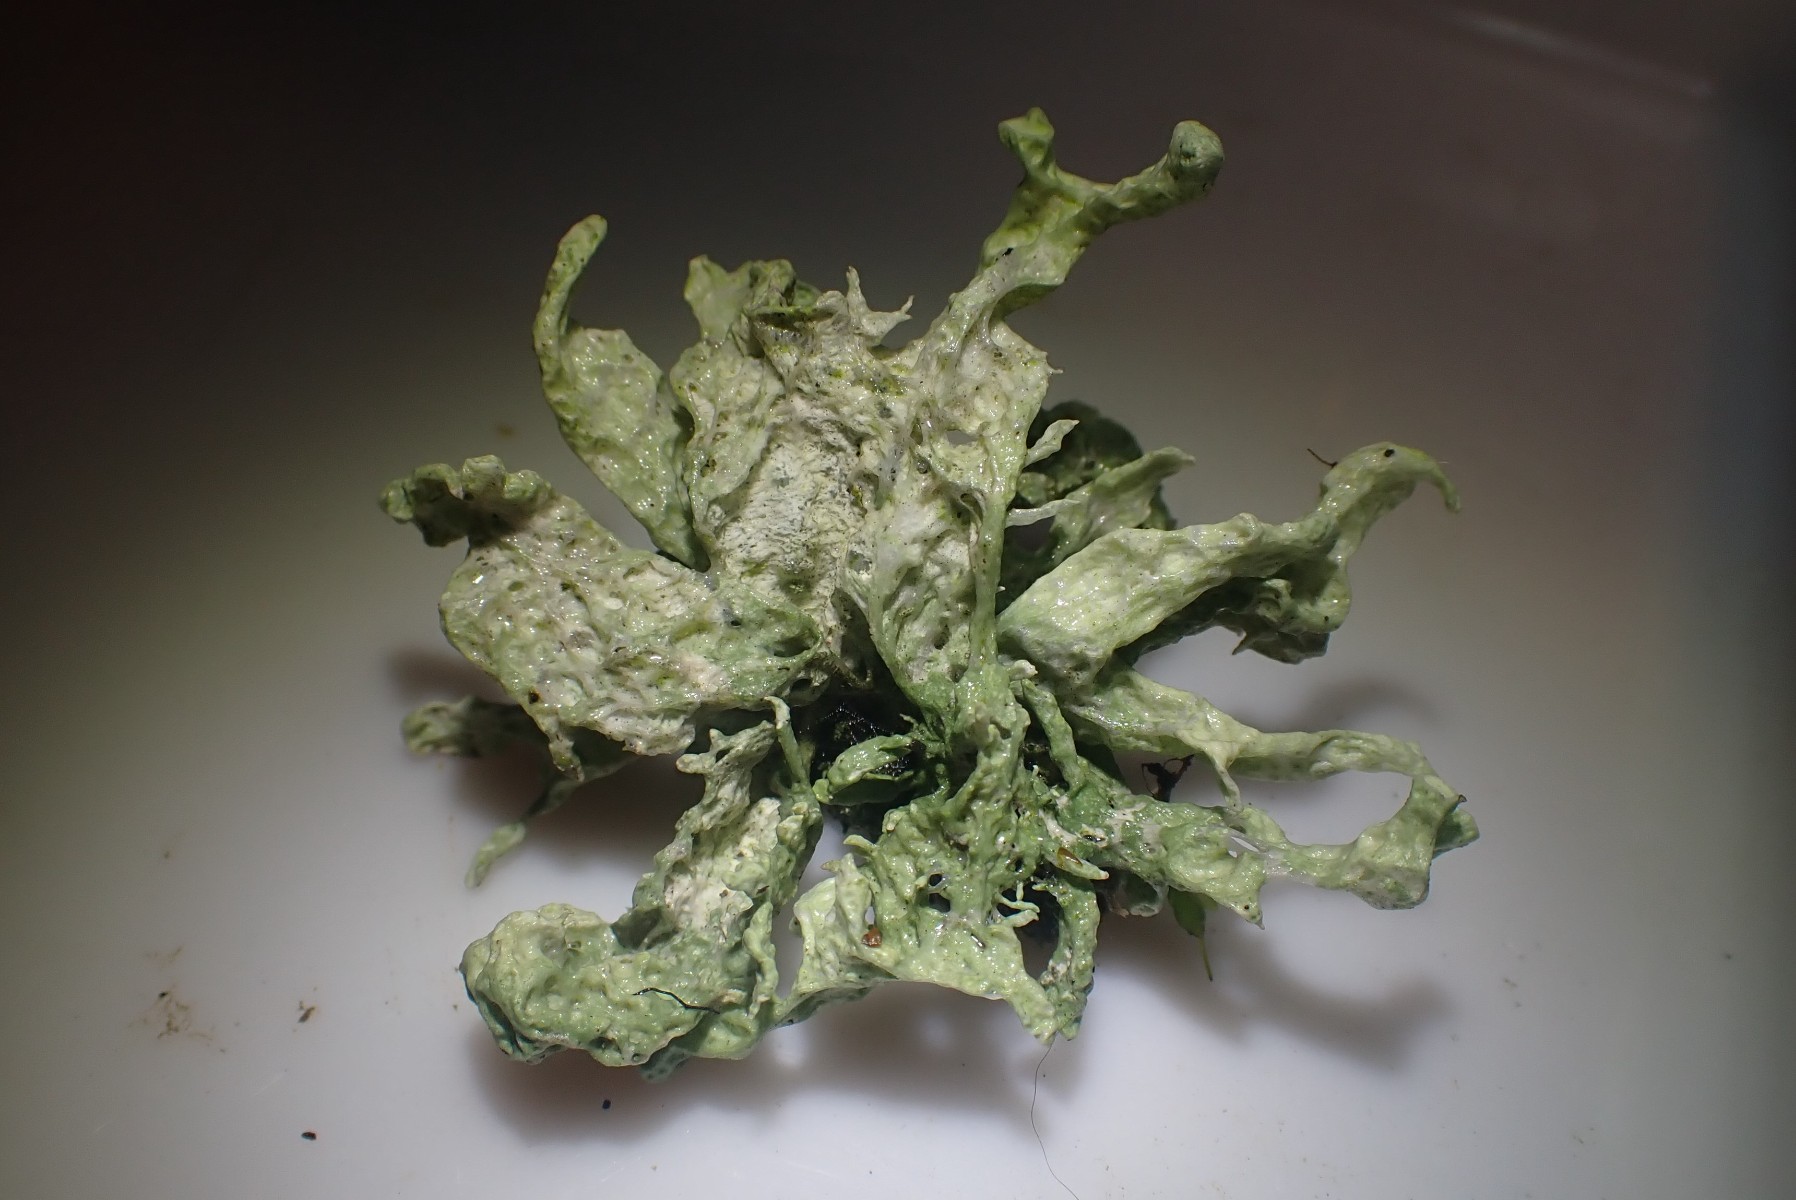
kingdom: Fungi
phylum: Ascomycota
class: Lecanoromycetes
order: Lecanorales
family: Ramalinaceae
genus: Ramalina
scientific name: Ramalina fastigiata
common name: tue-grenlav
